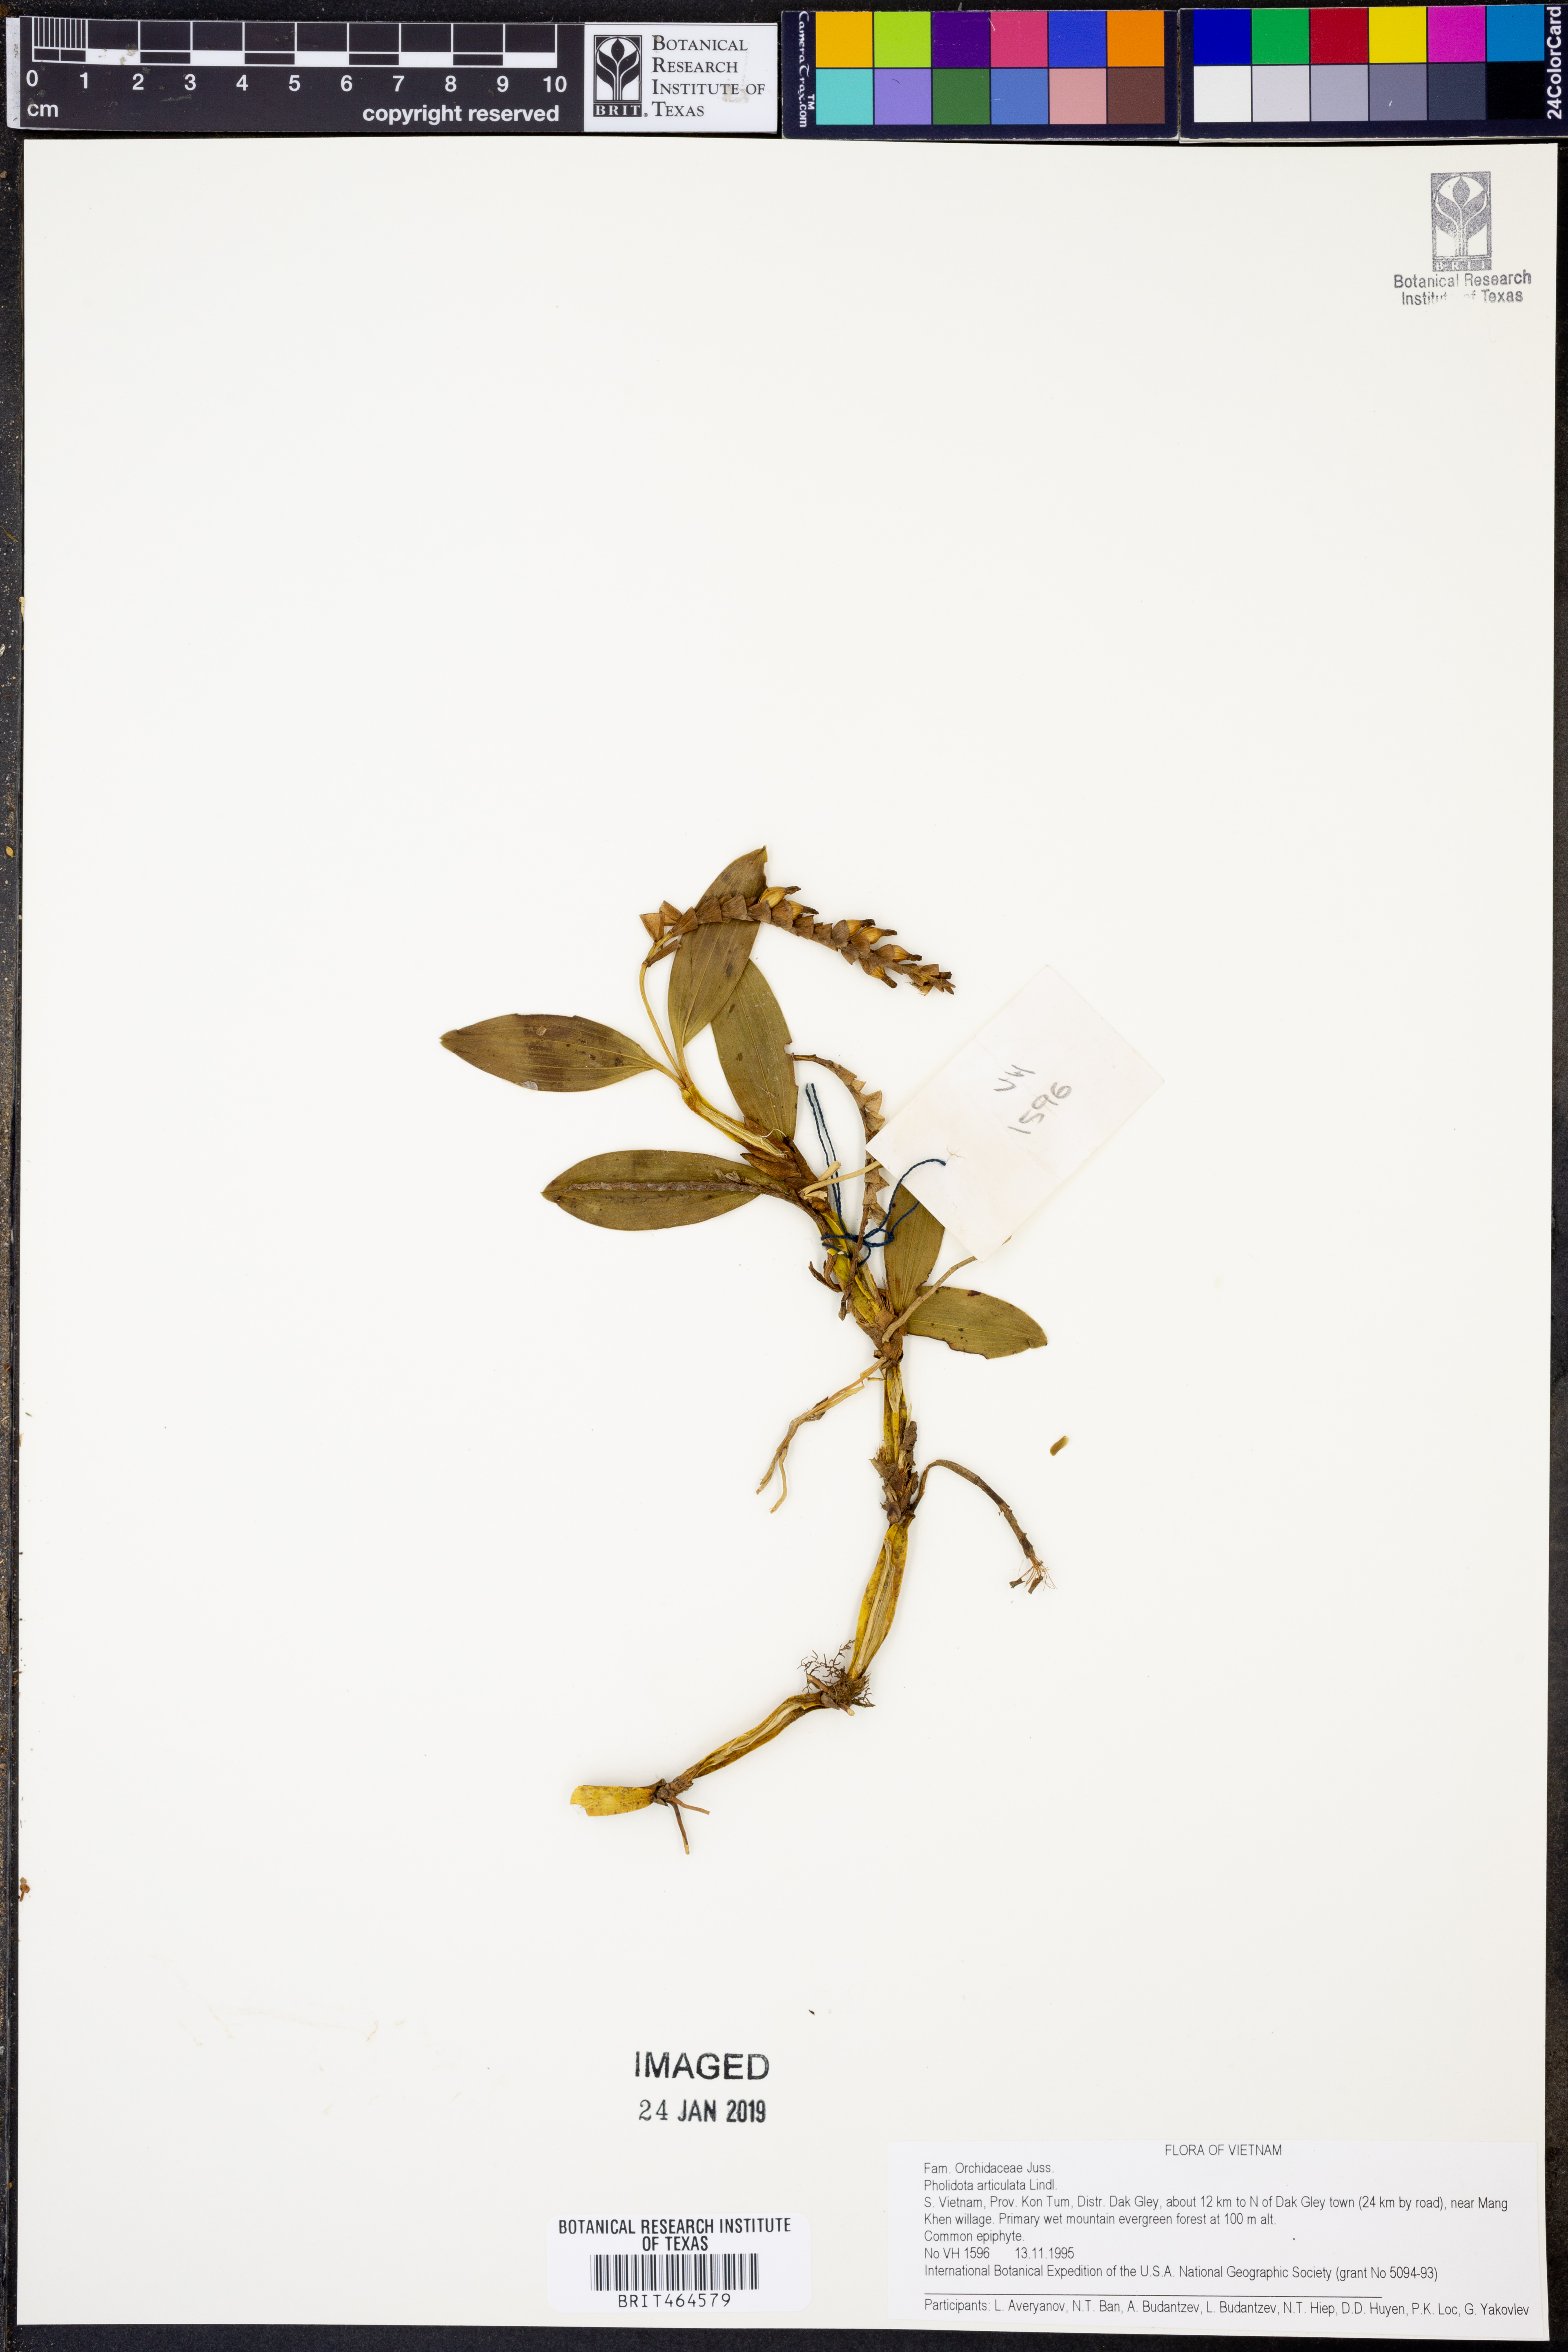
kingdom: Plantae
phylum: Tracheophyta
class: Liliopsida
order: Asparagales
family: Orchidaceae
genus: Coelogyne
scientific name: Coelogyne articulata
